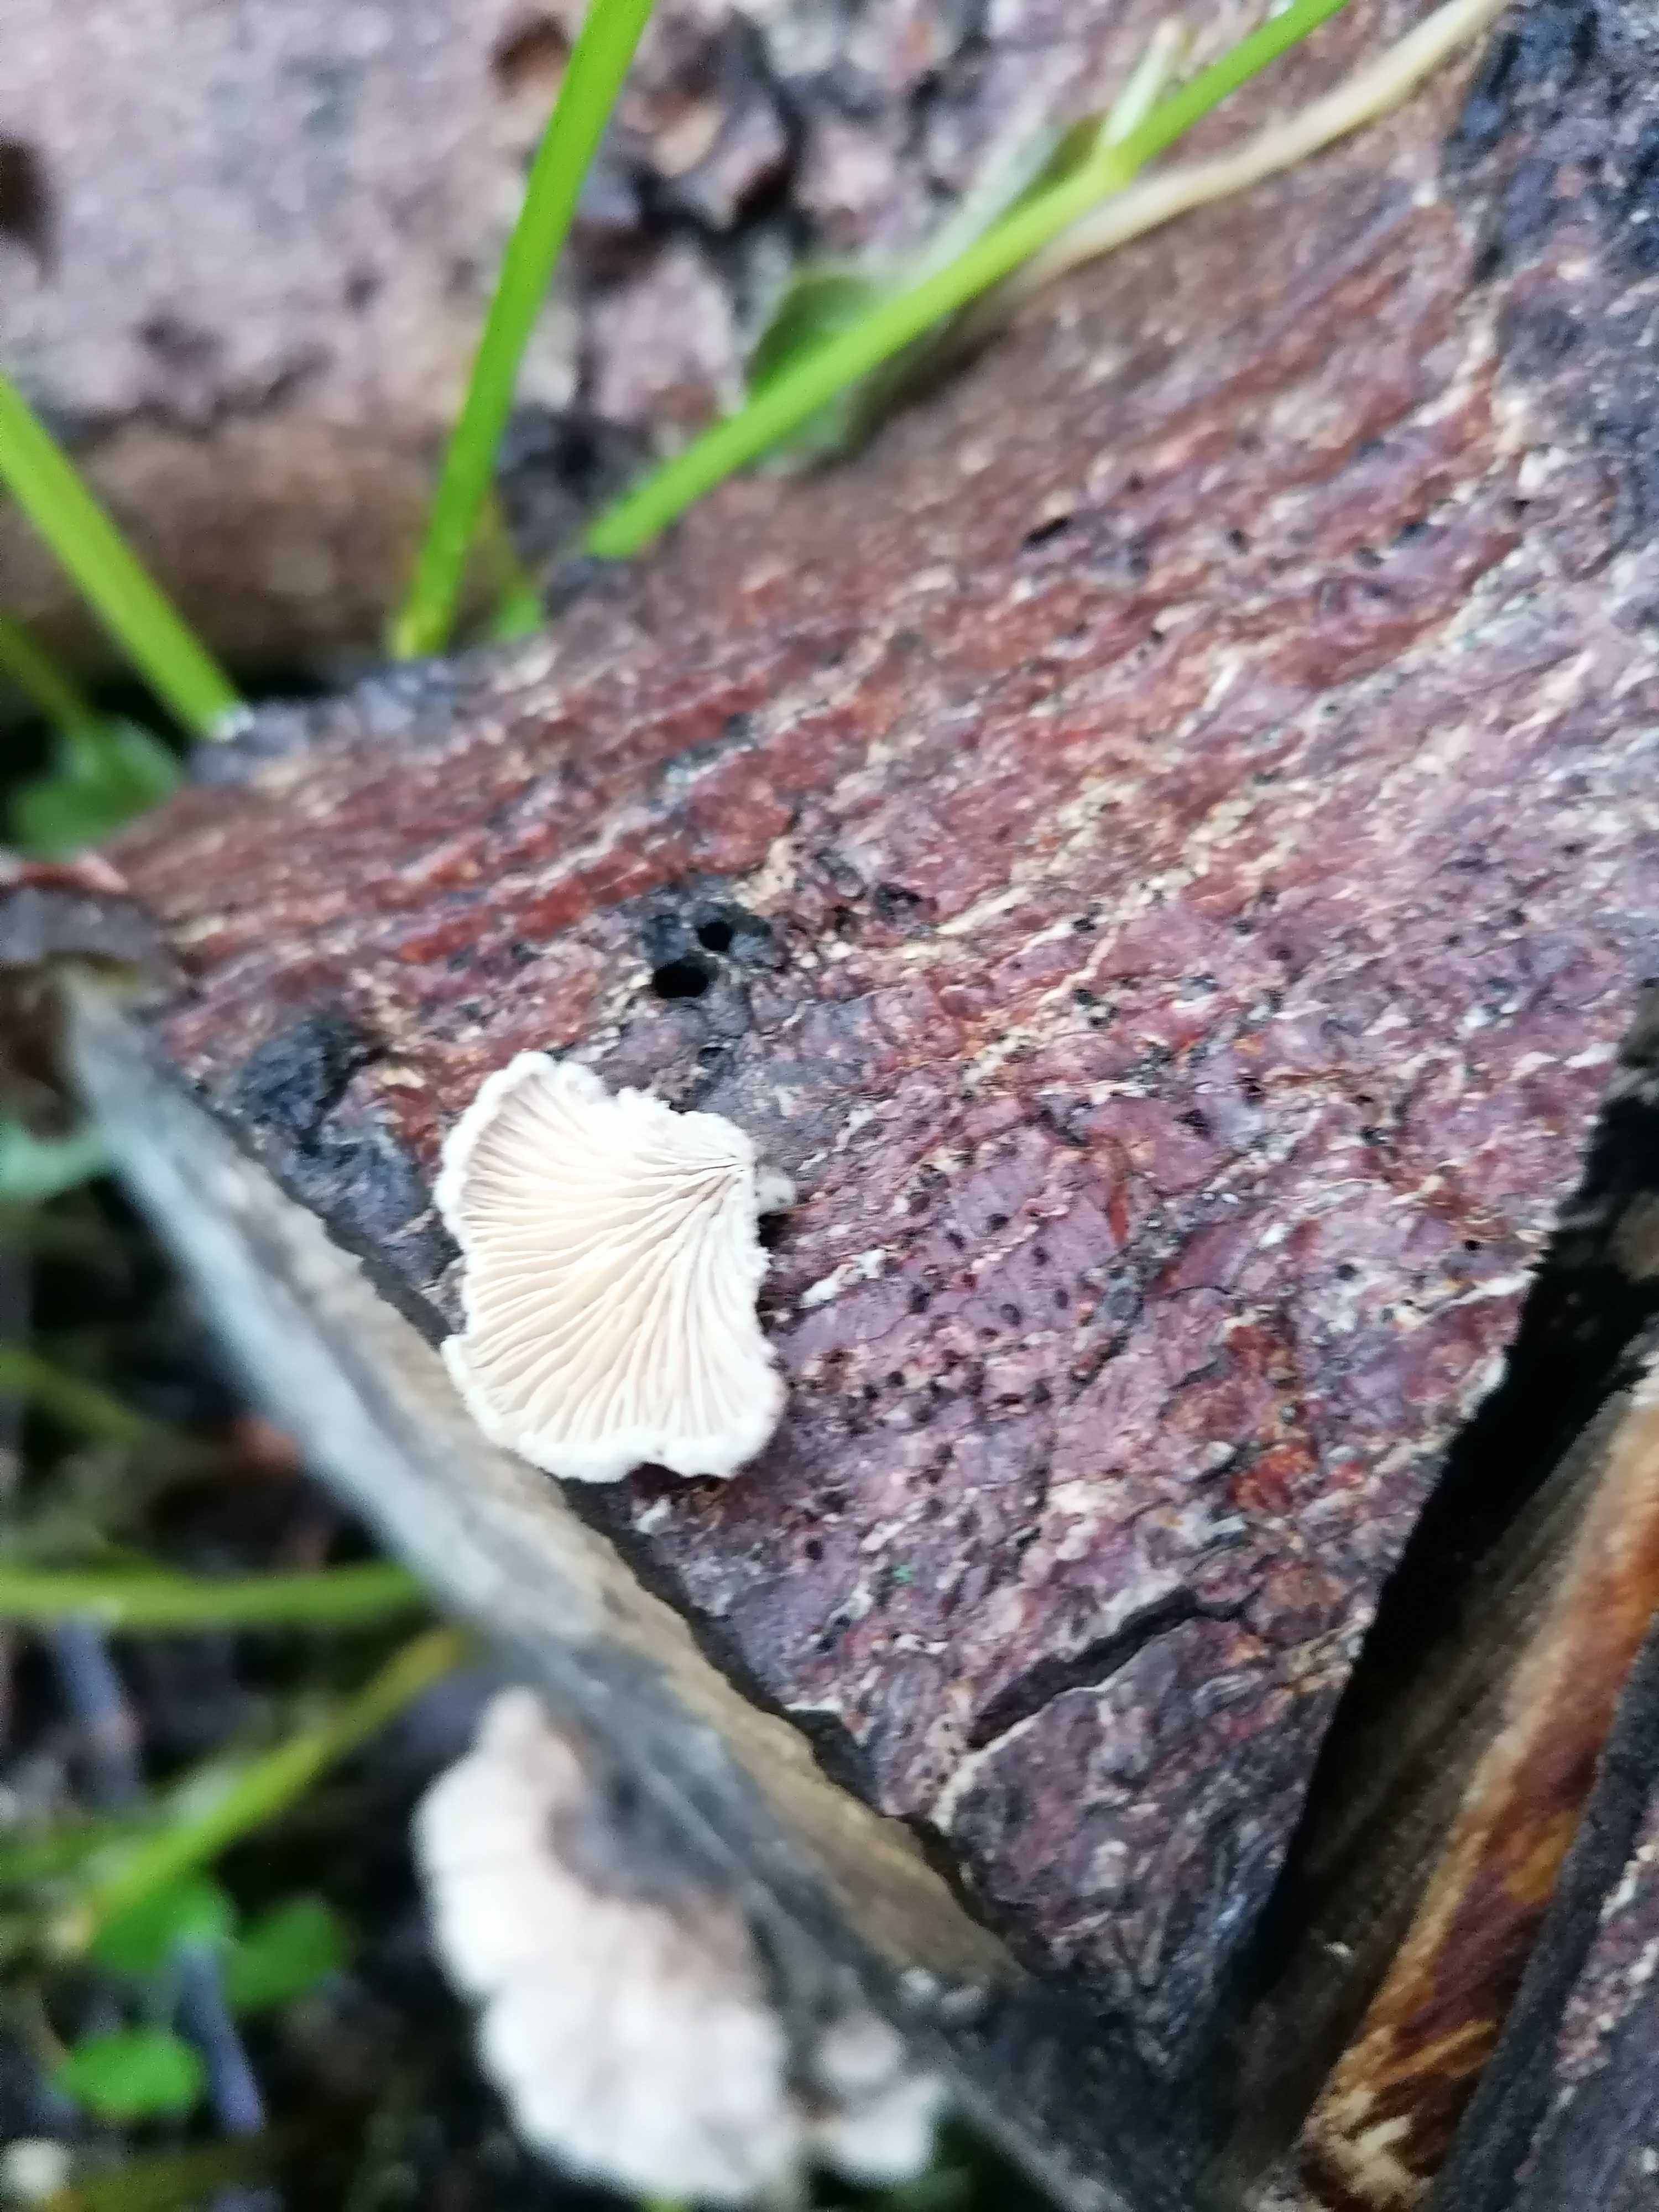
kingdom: Fungi
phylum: Basidiomycota
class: Agaricomycetes
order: Agaricales
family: Schizophyllaceae
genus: Schizophyllum
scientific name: Schizophyllum commune
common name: kløvblad
